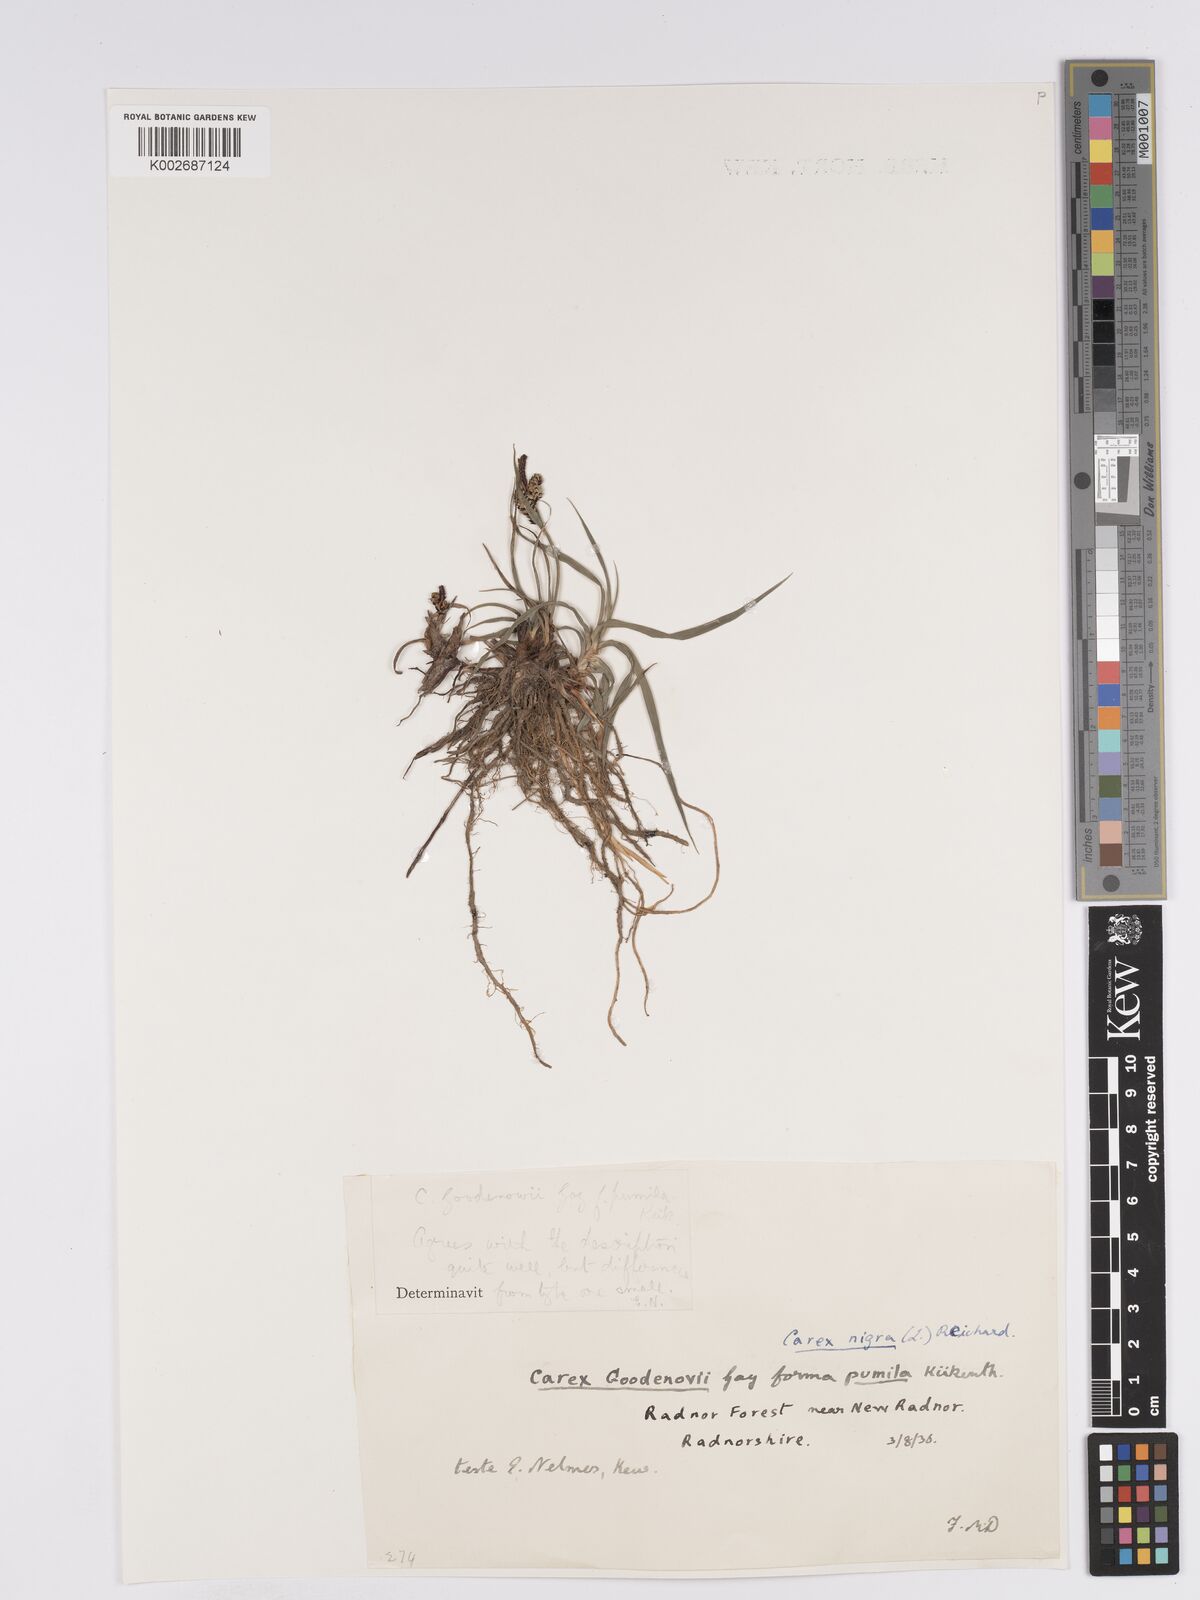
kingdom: Plantae
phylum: Tracheophyta
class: Liliopsida
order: Poales
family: Cyperaceae
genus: Carex
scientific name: Carex nigra
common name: Common sedge
